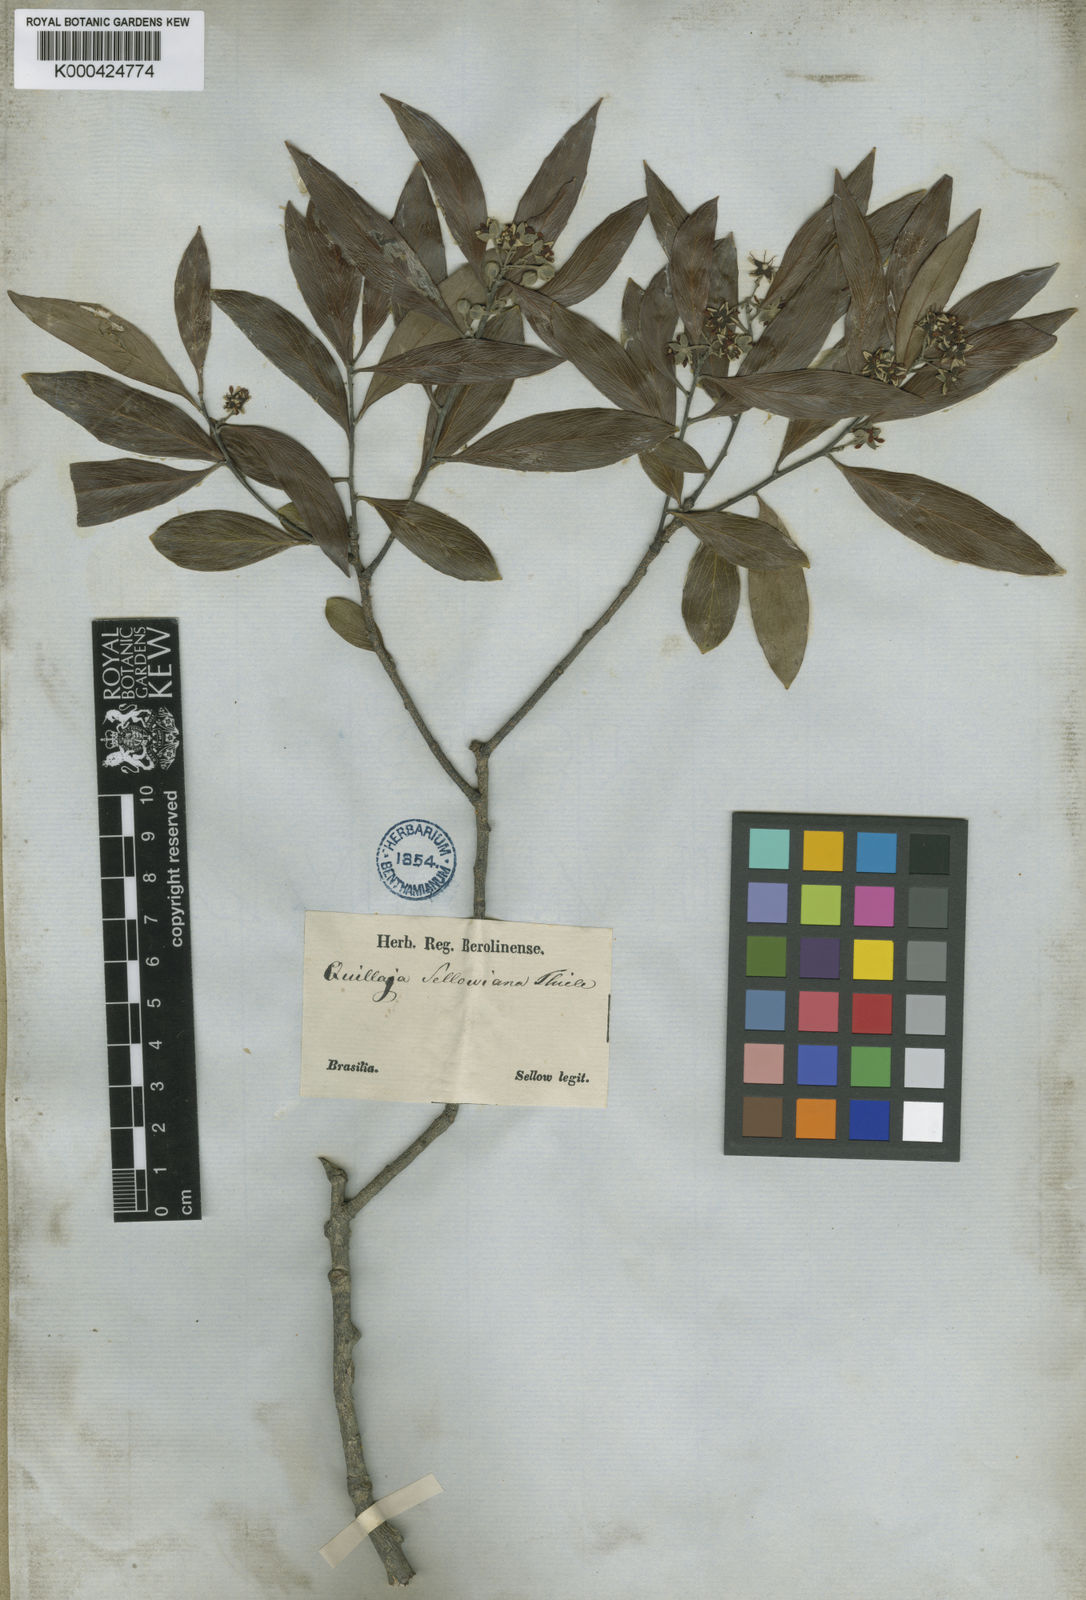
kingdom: Plantae
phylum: Tracheophyta
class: Magnoliopsida
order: Fabales
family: Quillajaceae
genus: Quillaja
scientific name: Quillaja
